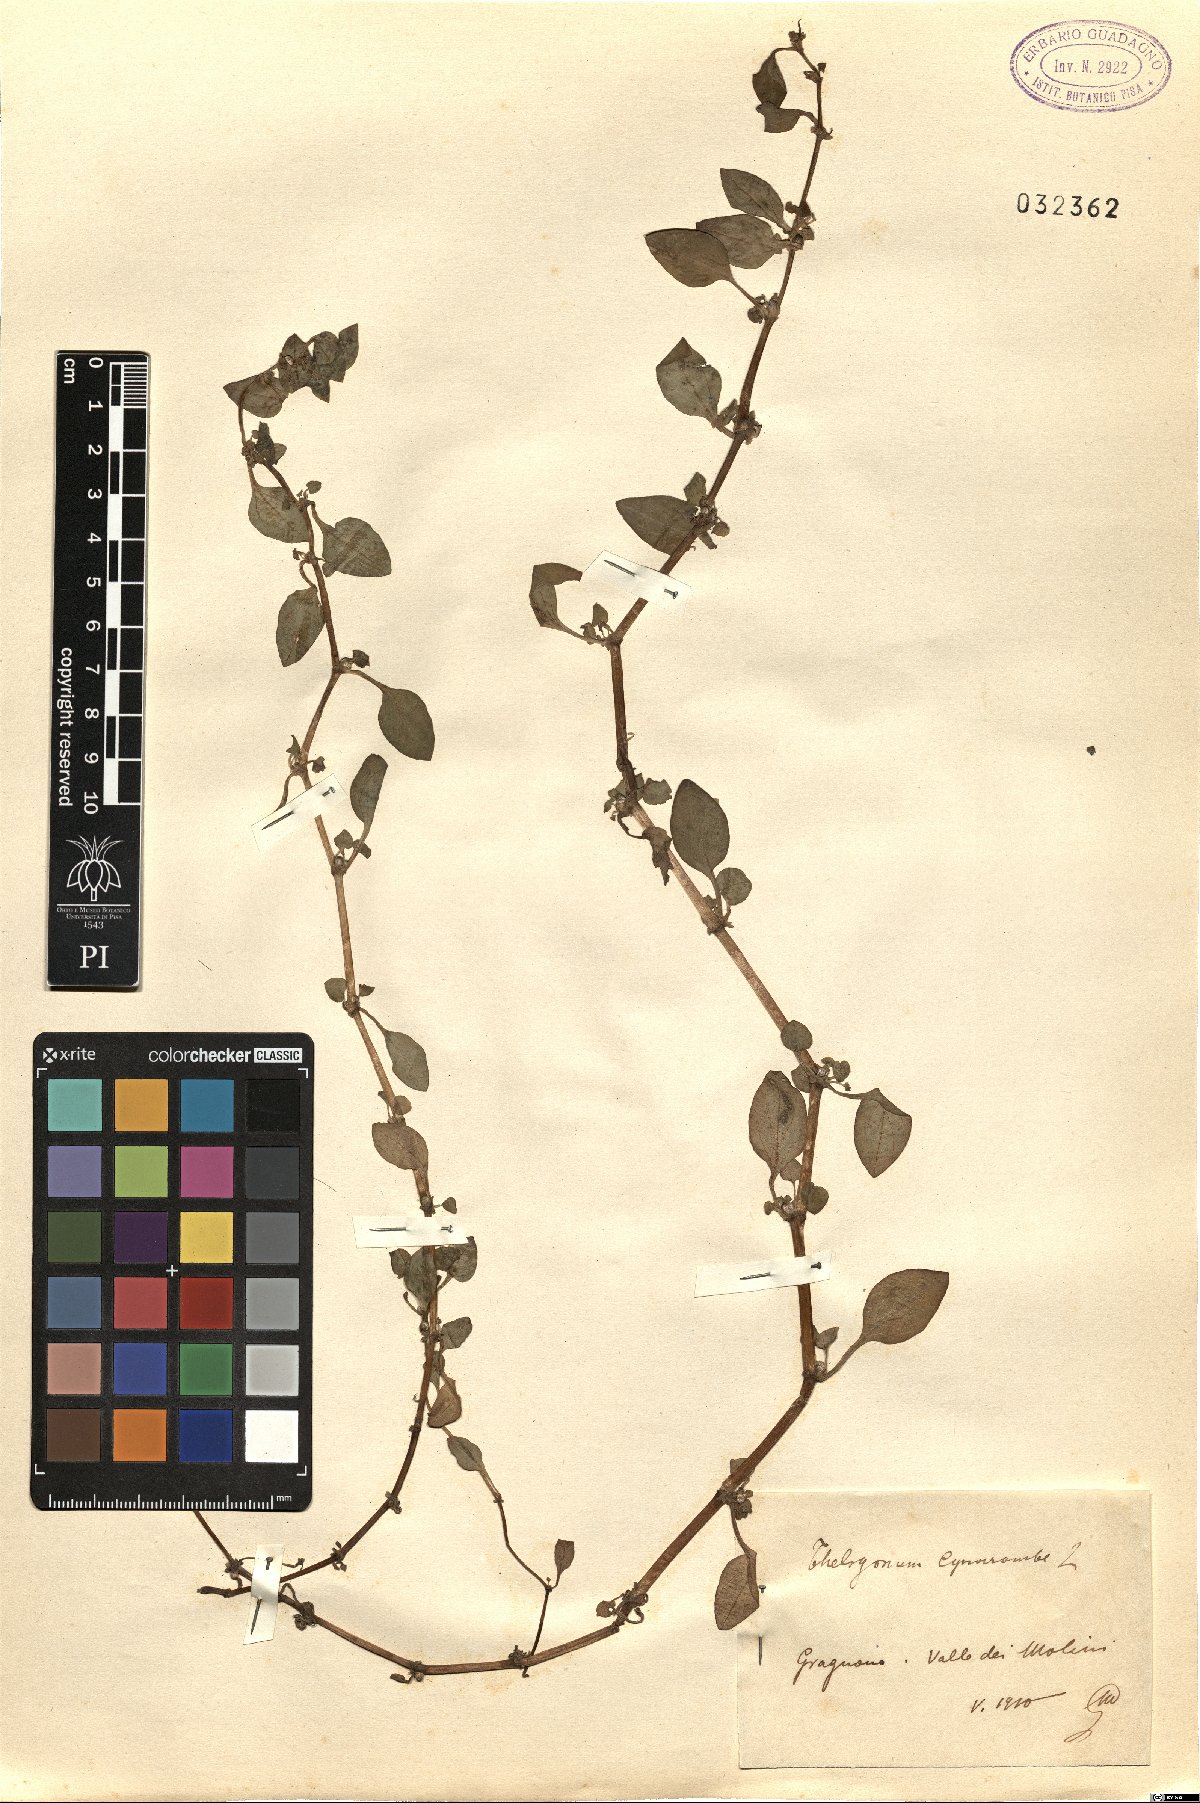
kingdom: Plantae
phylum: Tracheophyta
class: Magnoliopsida
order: Gentianales
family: Rubiaceae
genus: Theligonum
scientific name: Theligonum cynocrambe
